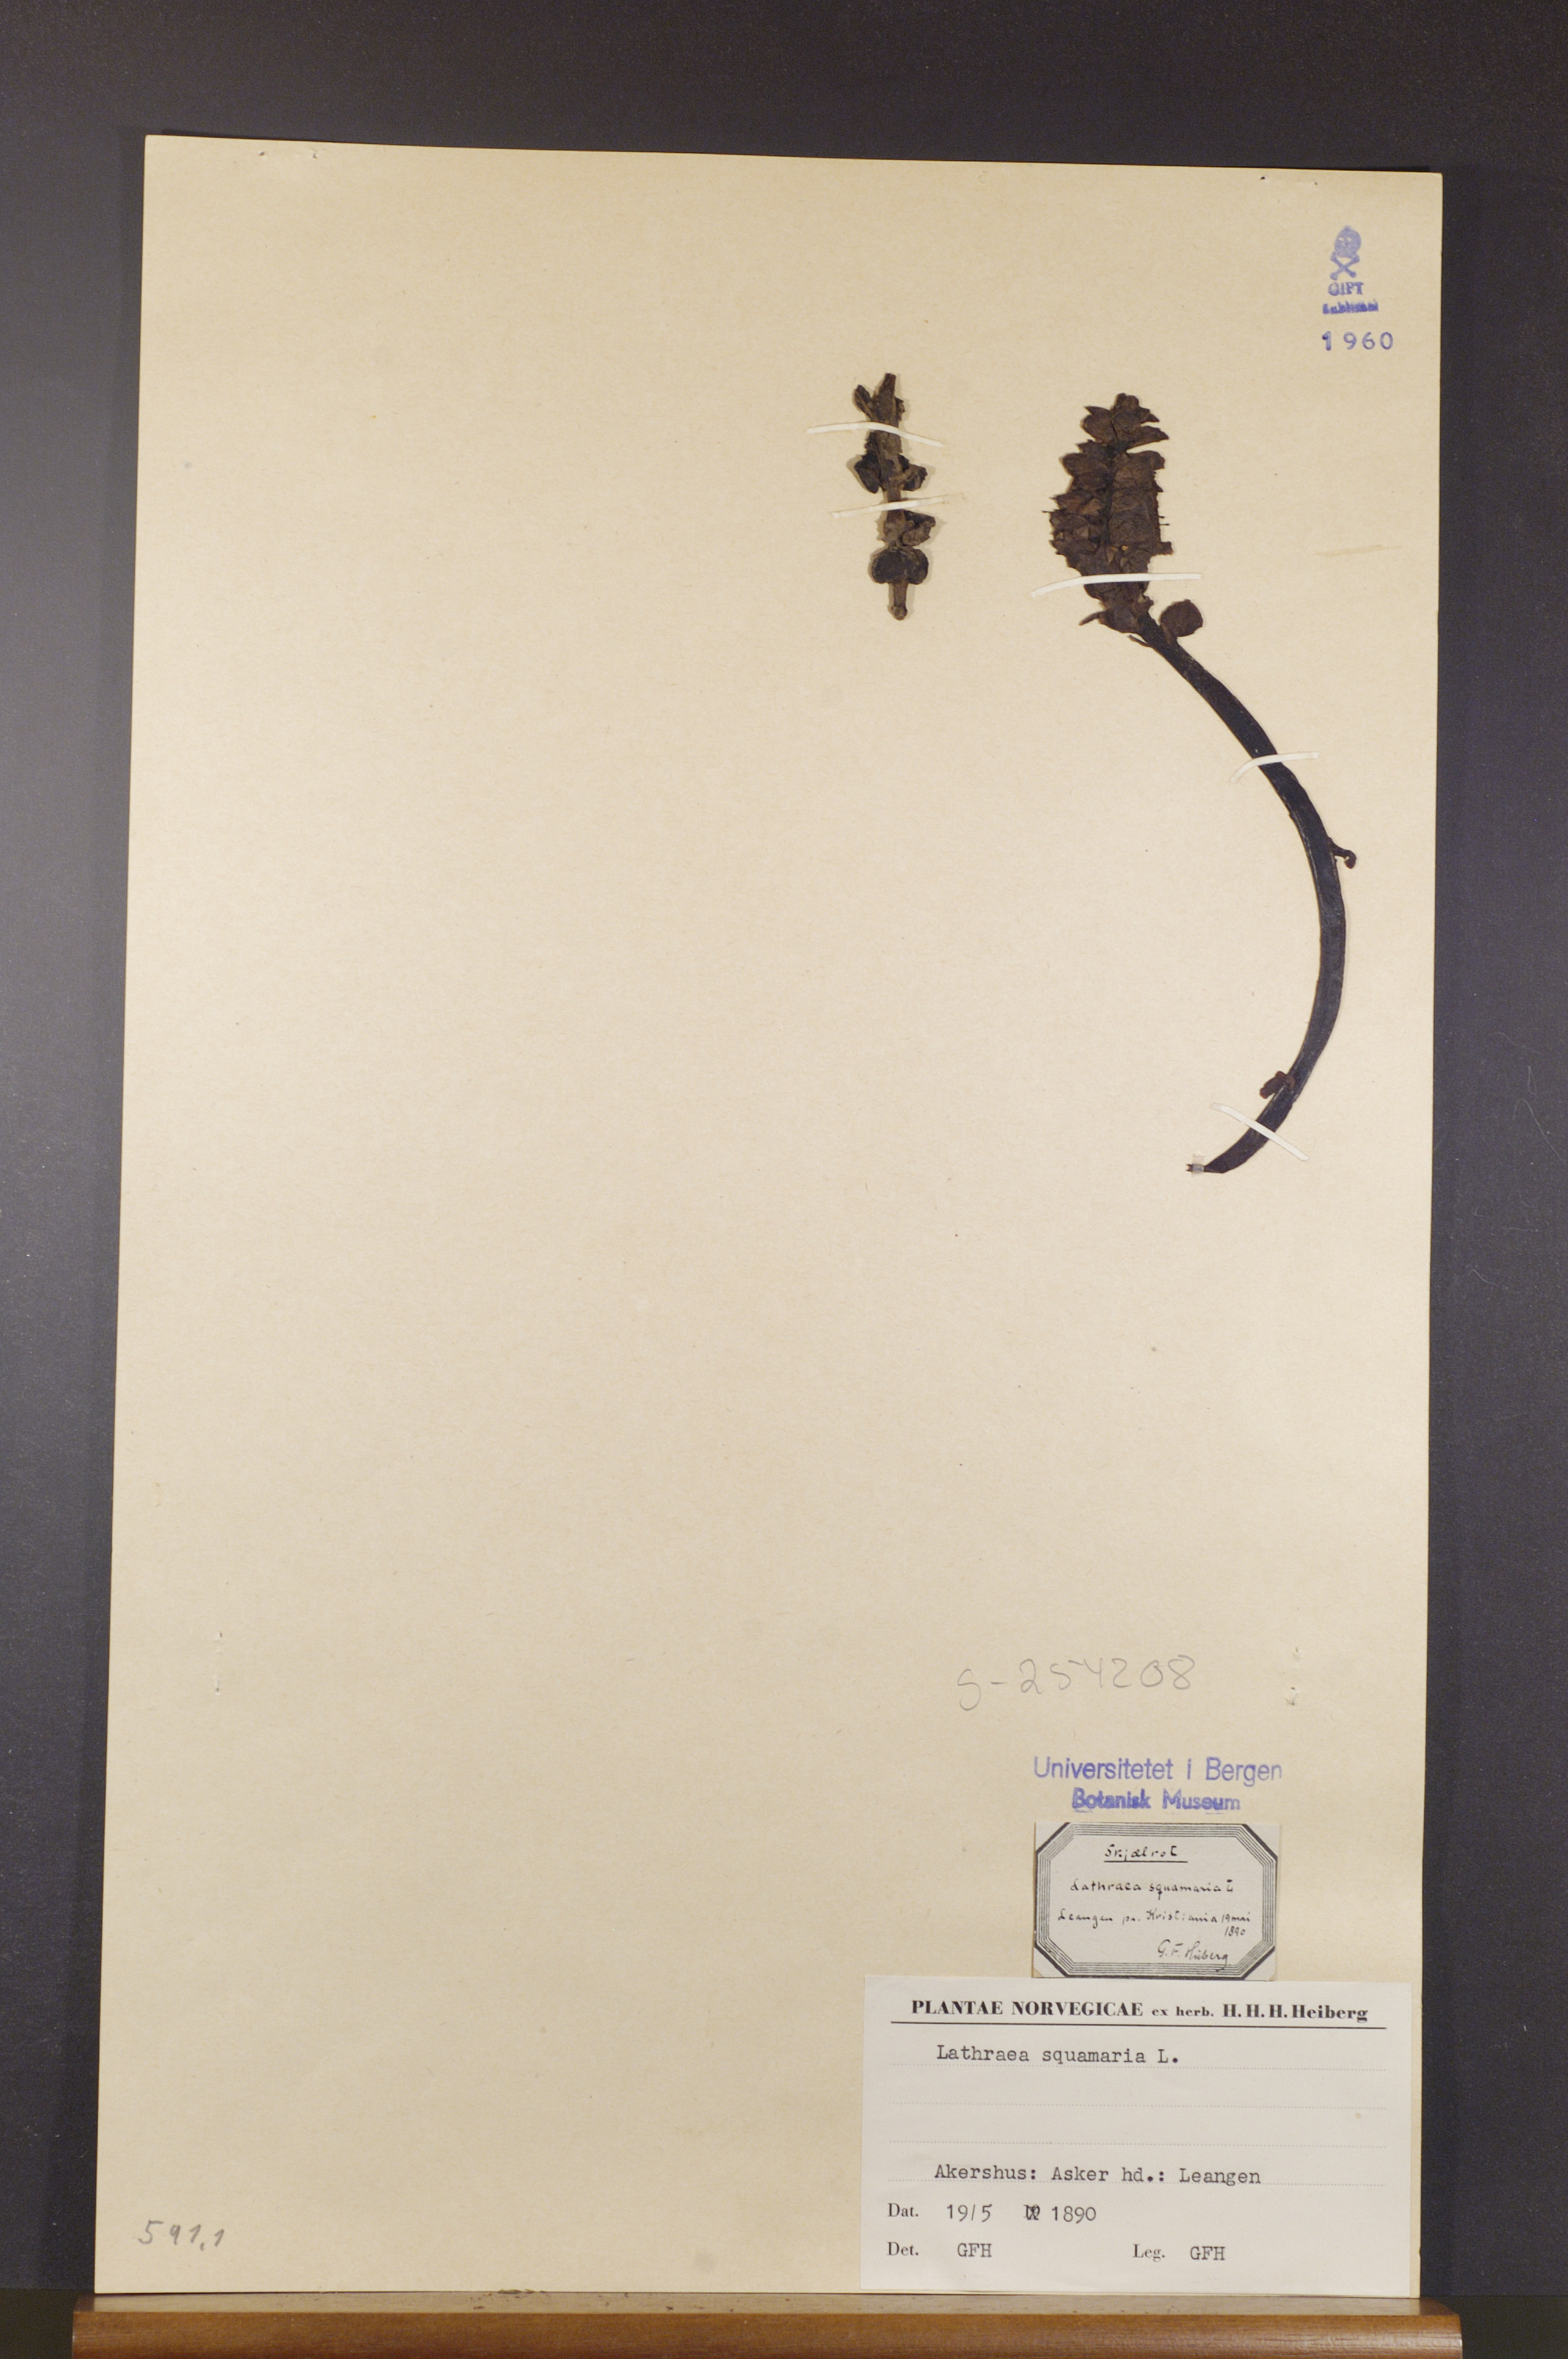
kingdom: Plantae
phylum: Tracheophyta
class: Magnoliopsida
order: Lamiales
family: Orobanchaceae
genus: Lathraea
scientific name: Lathraea squamaria
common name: Toothwort
